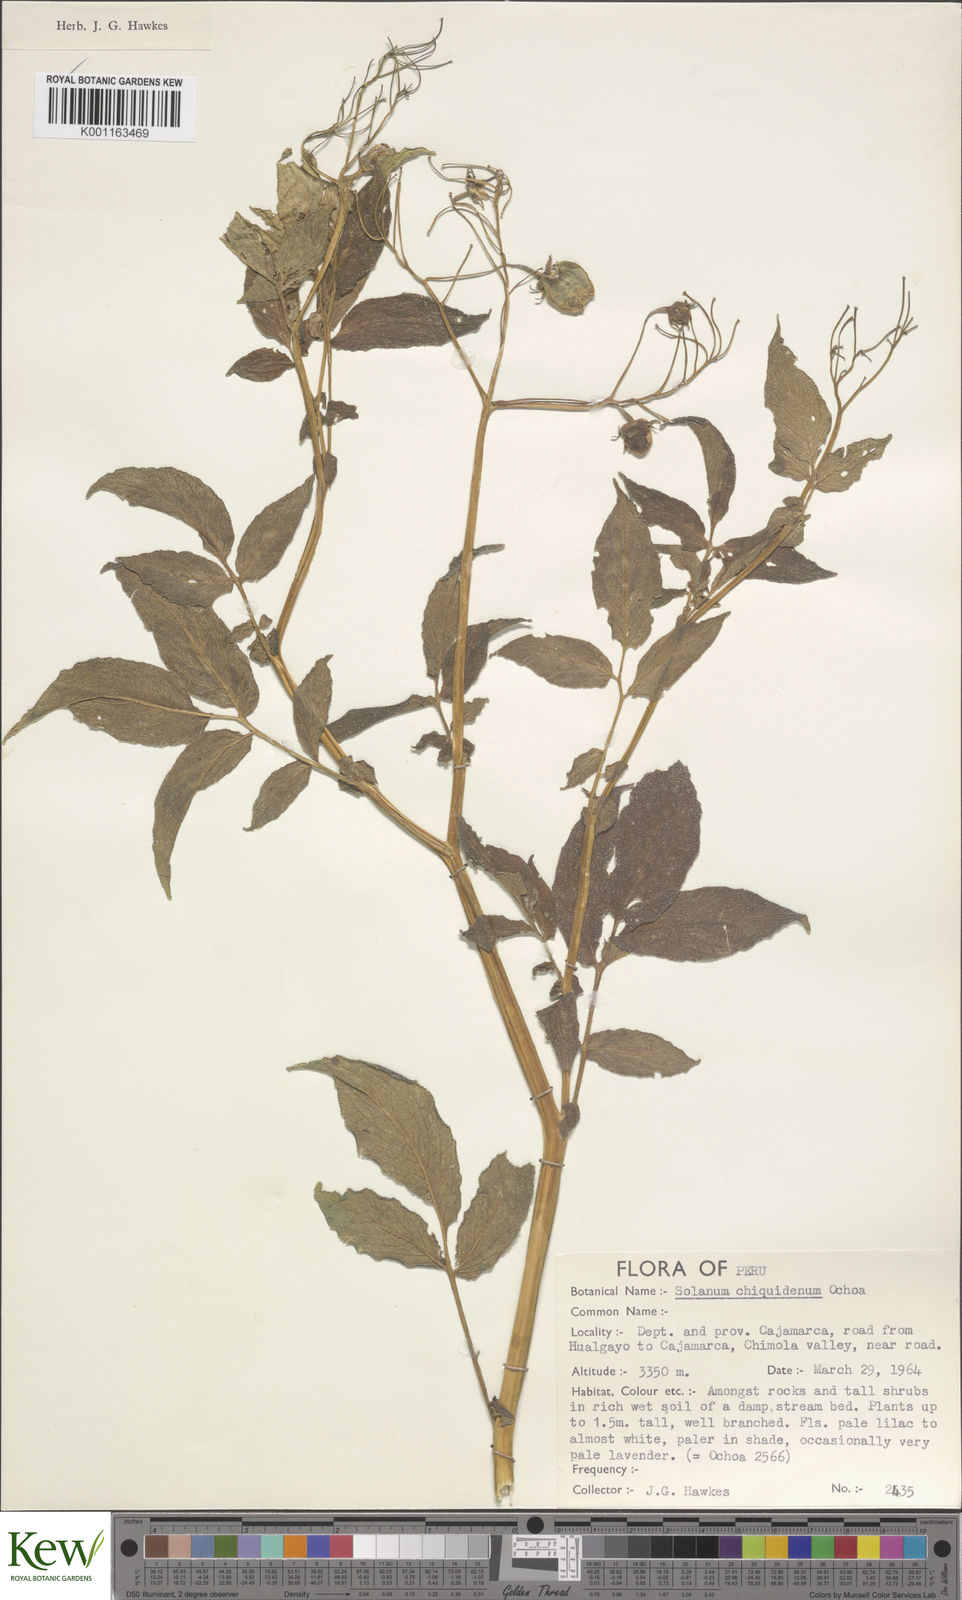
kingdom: Plantae
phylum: Tracheophyta
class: Magnoliopsida
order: Solanales
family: Solanaceae
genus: Solanum
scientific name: Solanum chiquidenum
